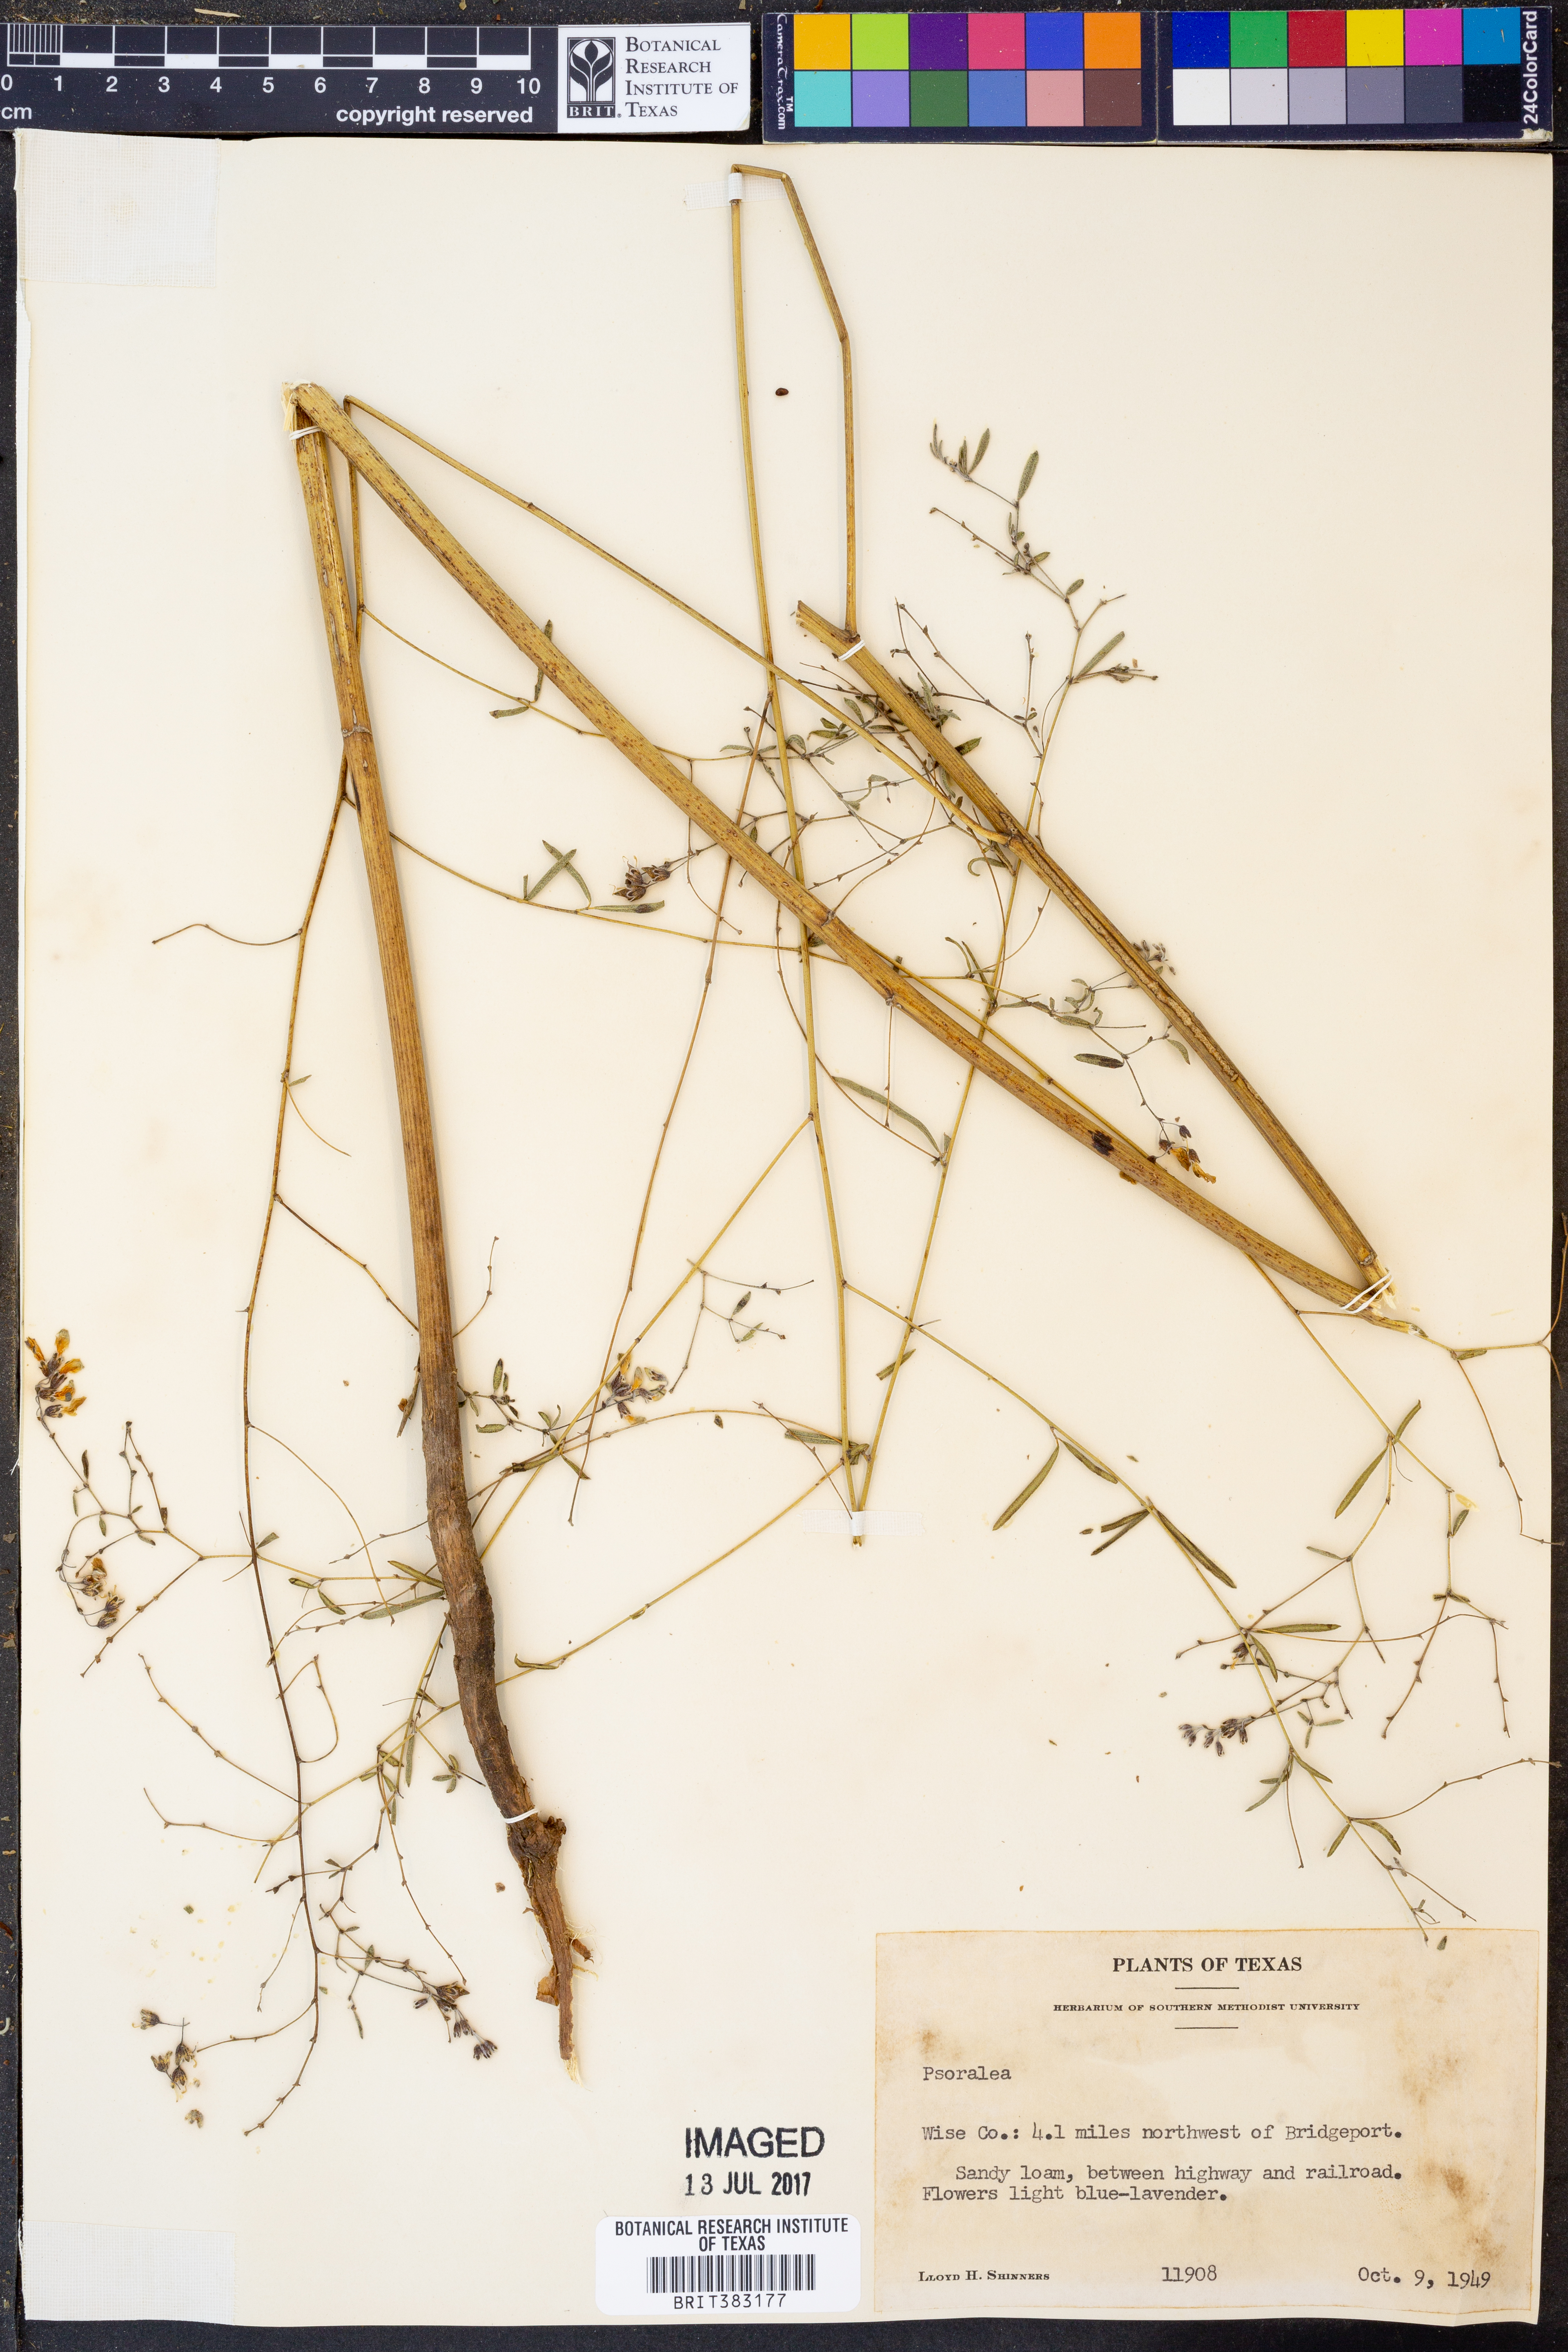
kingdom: Plantae
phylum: Tracheophyta
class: Magnoliopsida
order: Fabales
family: Fabaceae
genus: Psoralea
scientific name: Psoralea
